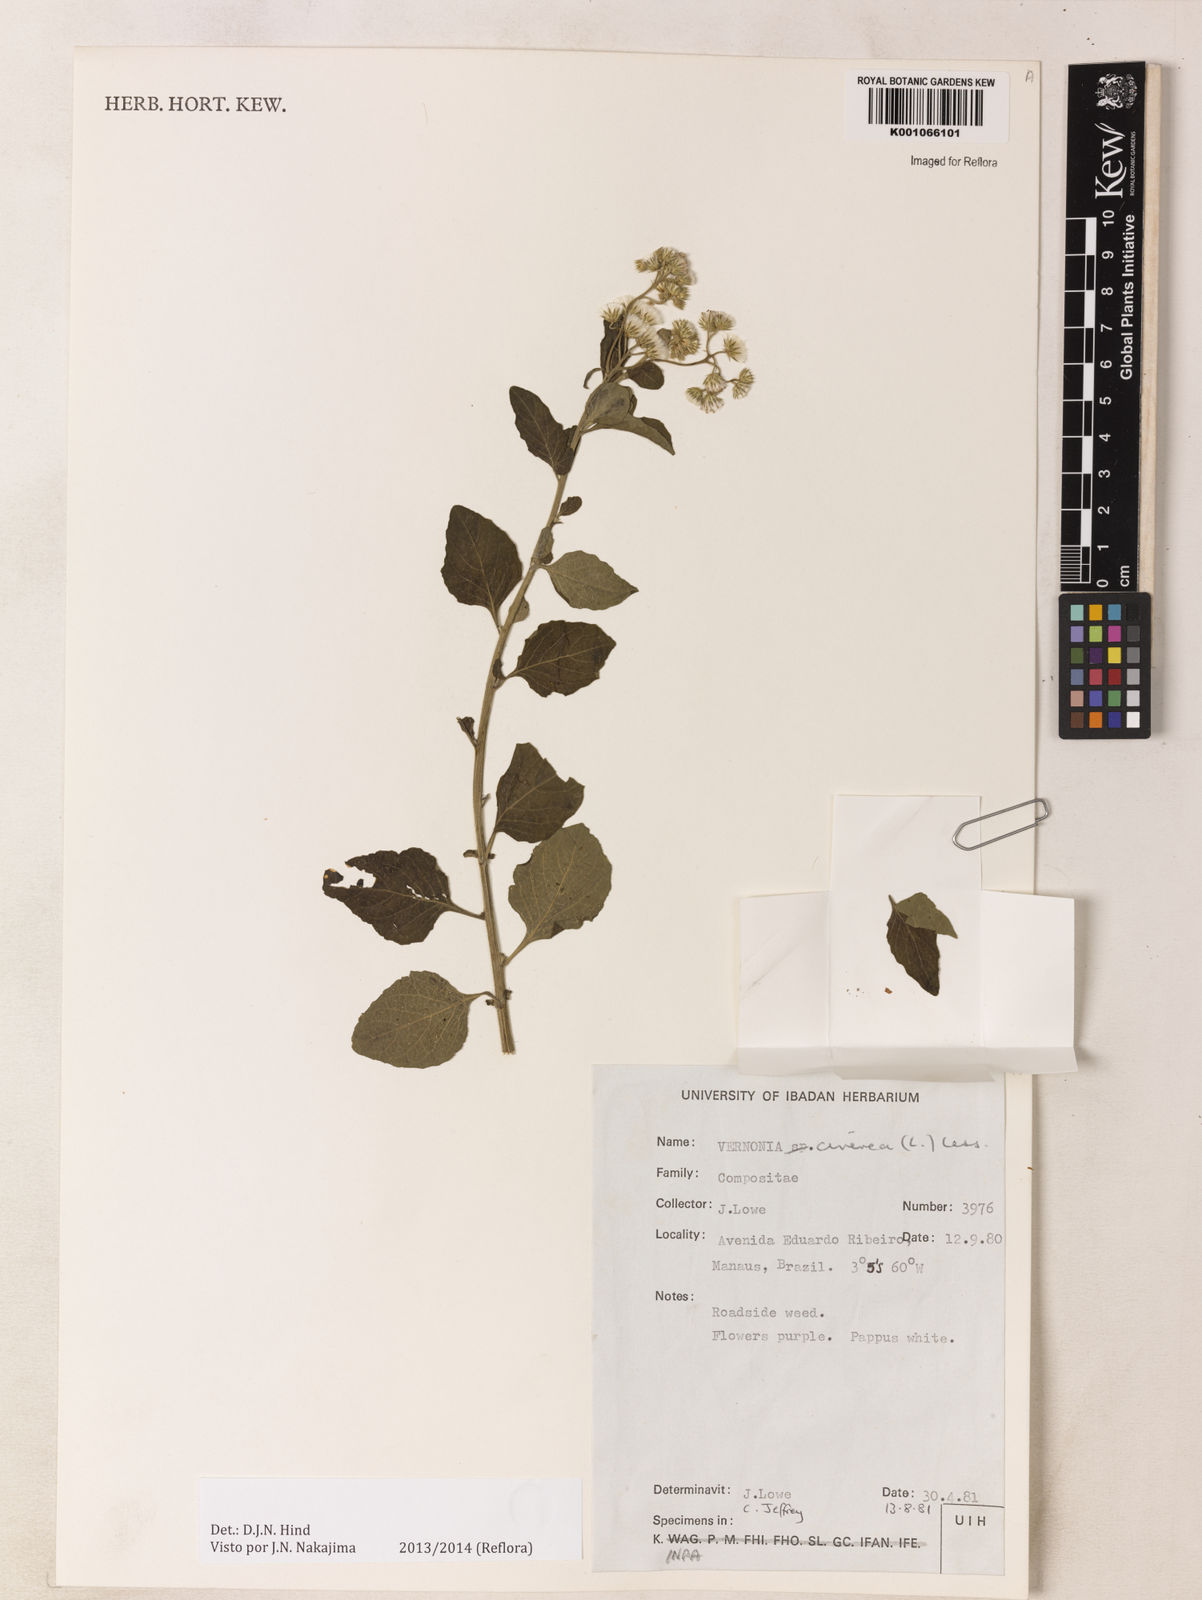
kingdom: Plantae
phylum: Tracheophyta
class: Magnoliopsida
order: Asterales
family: Asteraceae
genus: Cyanthillium
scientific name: Cyanthillium cinereum
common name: Little ironweed
